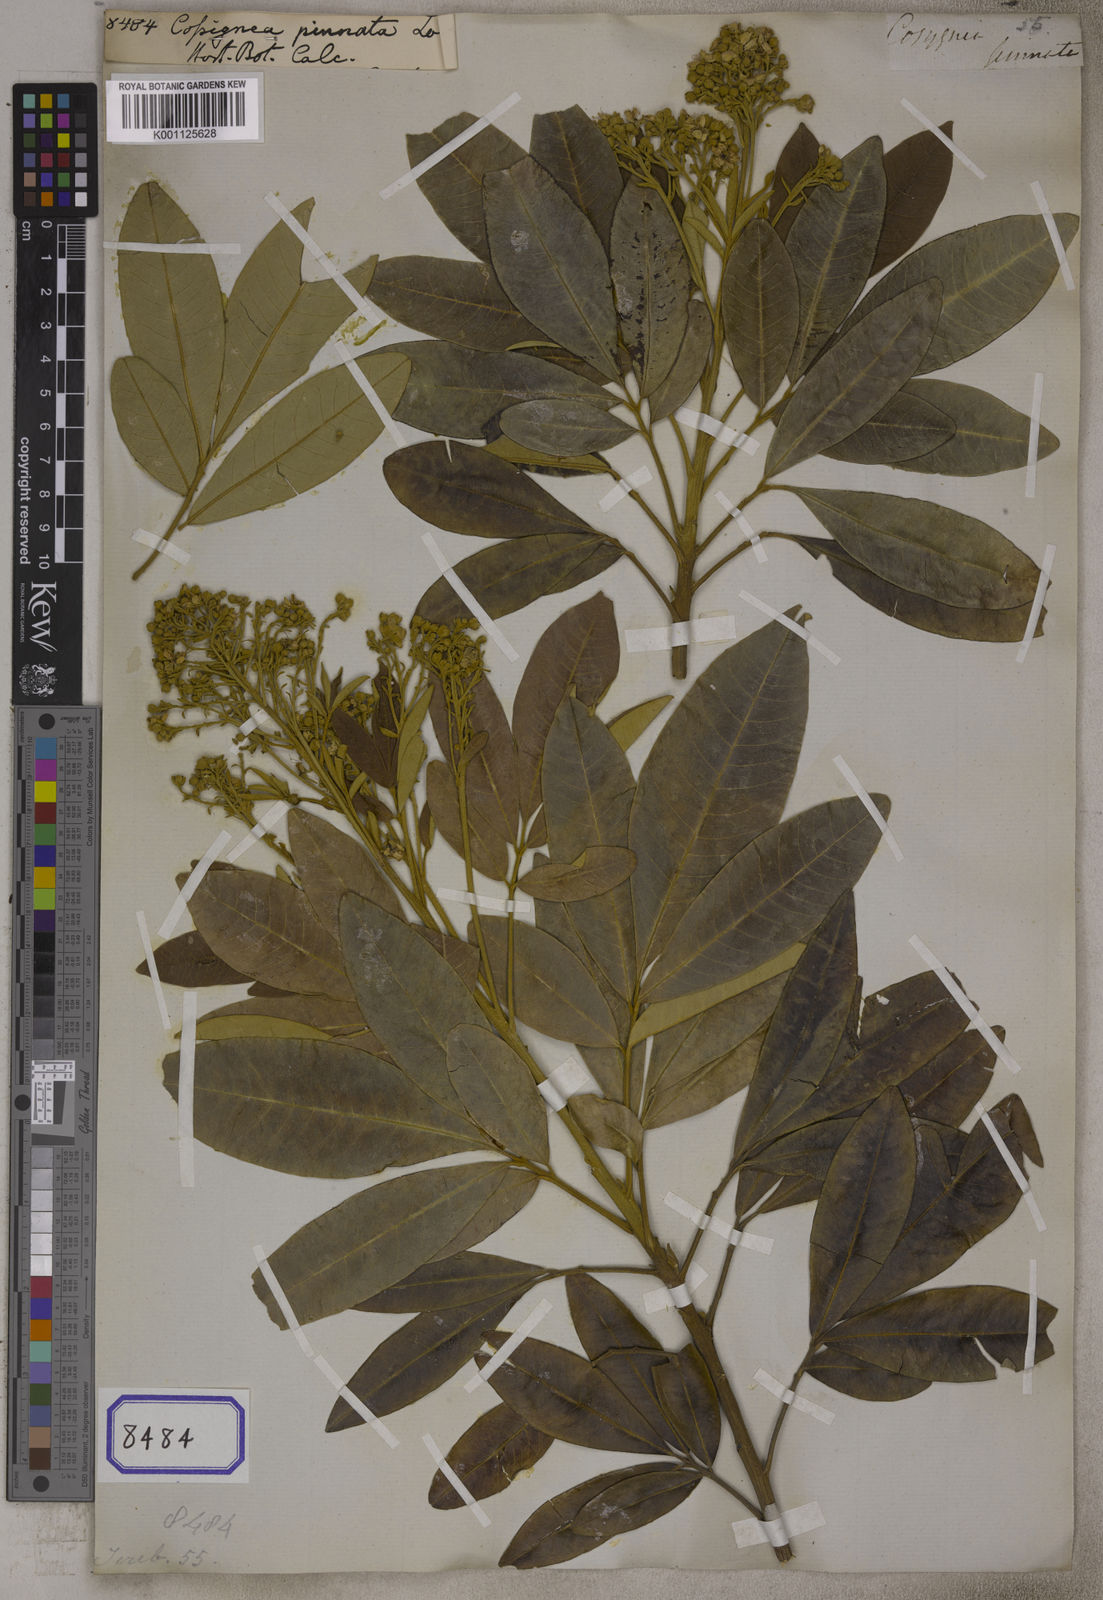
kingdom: Plantae
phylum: Tracheophyta
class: Magnoliopsida
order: Sapindales
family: Sapindaceae
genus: Cossinia
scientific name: Cossinia pinnata
